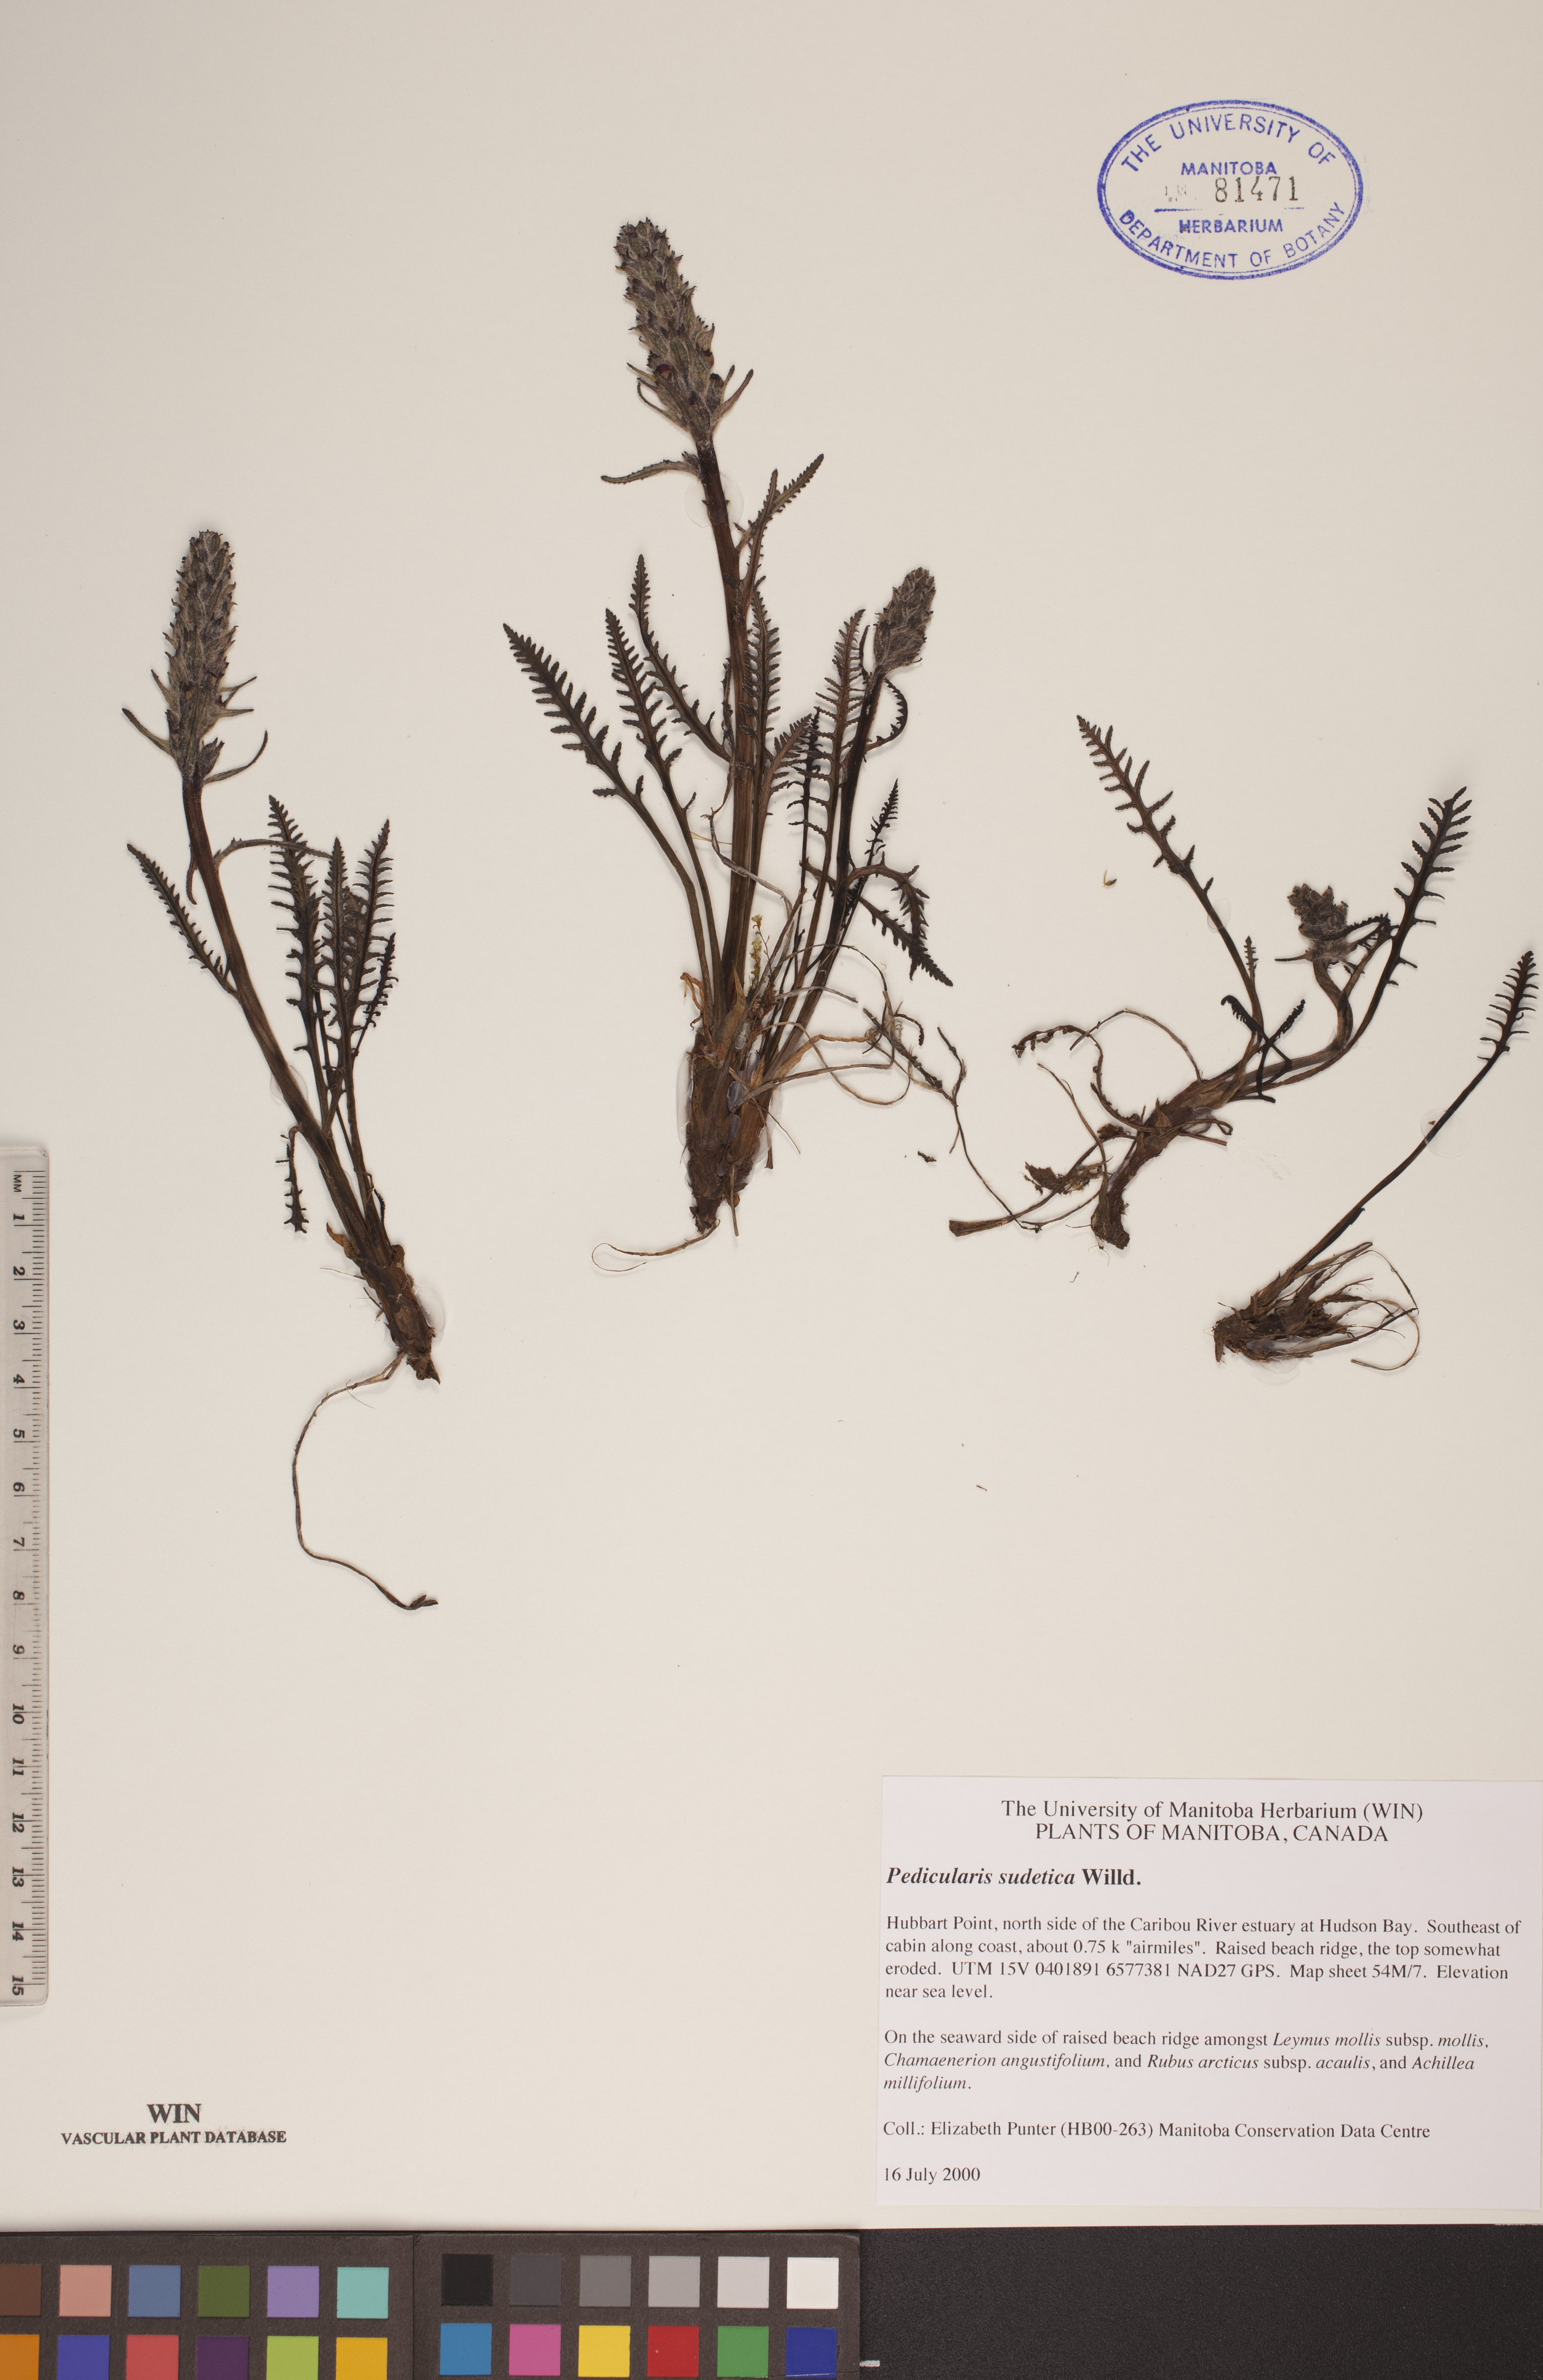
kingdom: Plantae
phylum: Tracheophyta
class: Magnoliopsida
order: Lamiales
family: Orobanchaceae
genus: Pedicularis
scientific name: Pedicularis sudetica
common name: Sudeten lousewort
